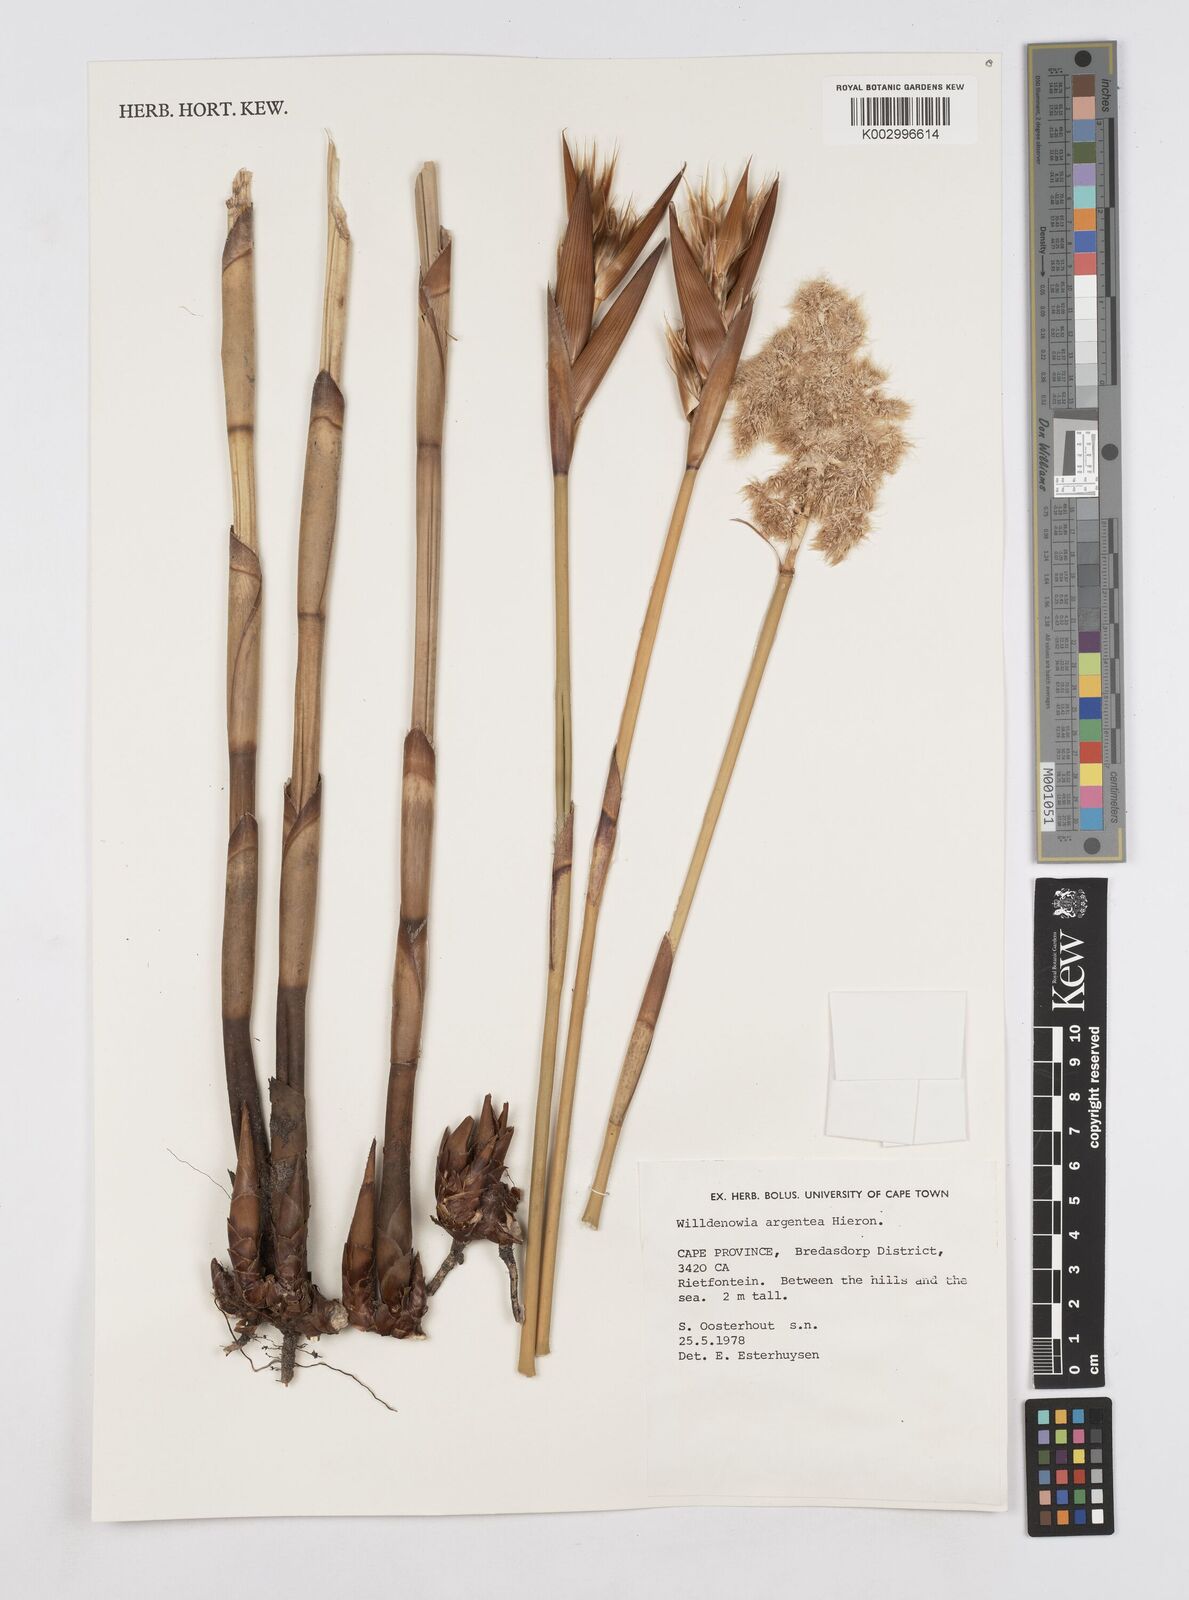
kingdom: Plantae
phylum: Tracheophyta
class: Liliopsida
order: Poales
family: Restionaceae
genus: Ceratocaryum
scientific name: Ceratocaryum argenteum
